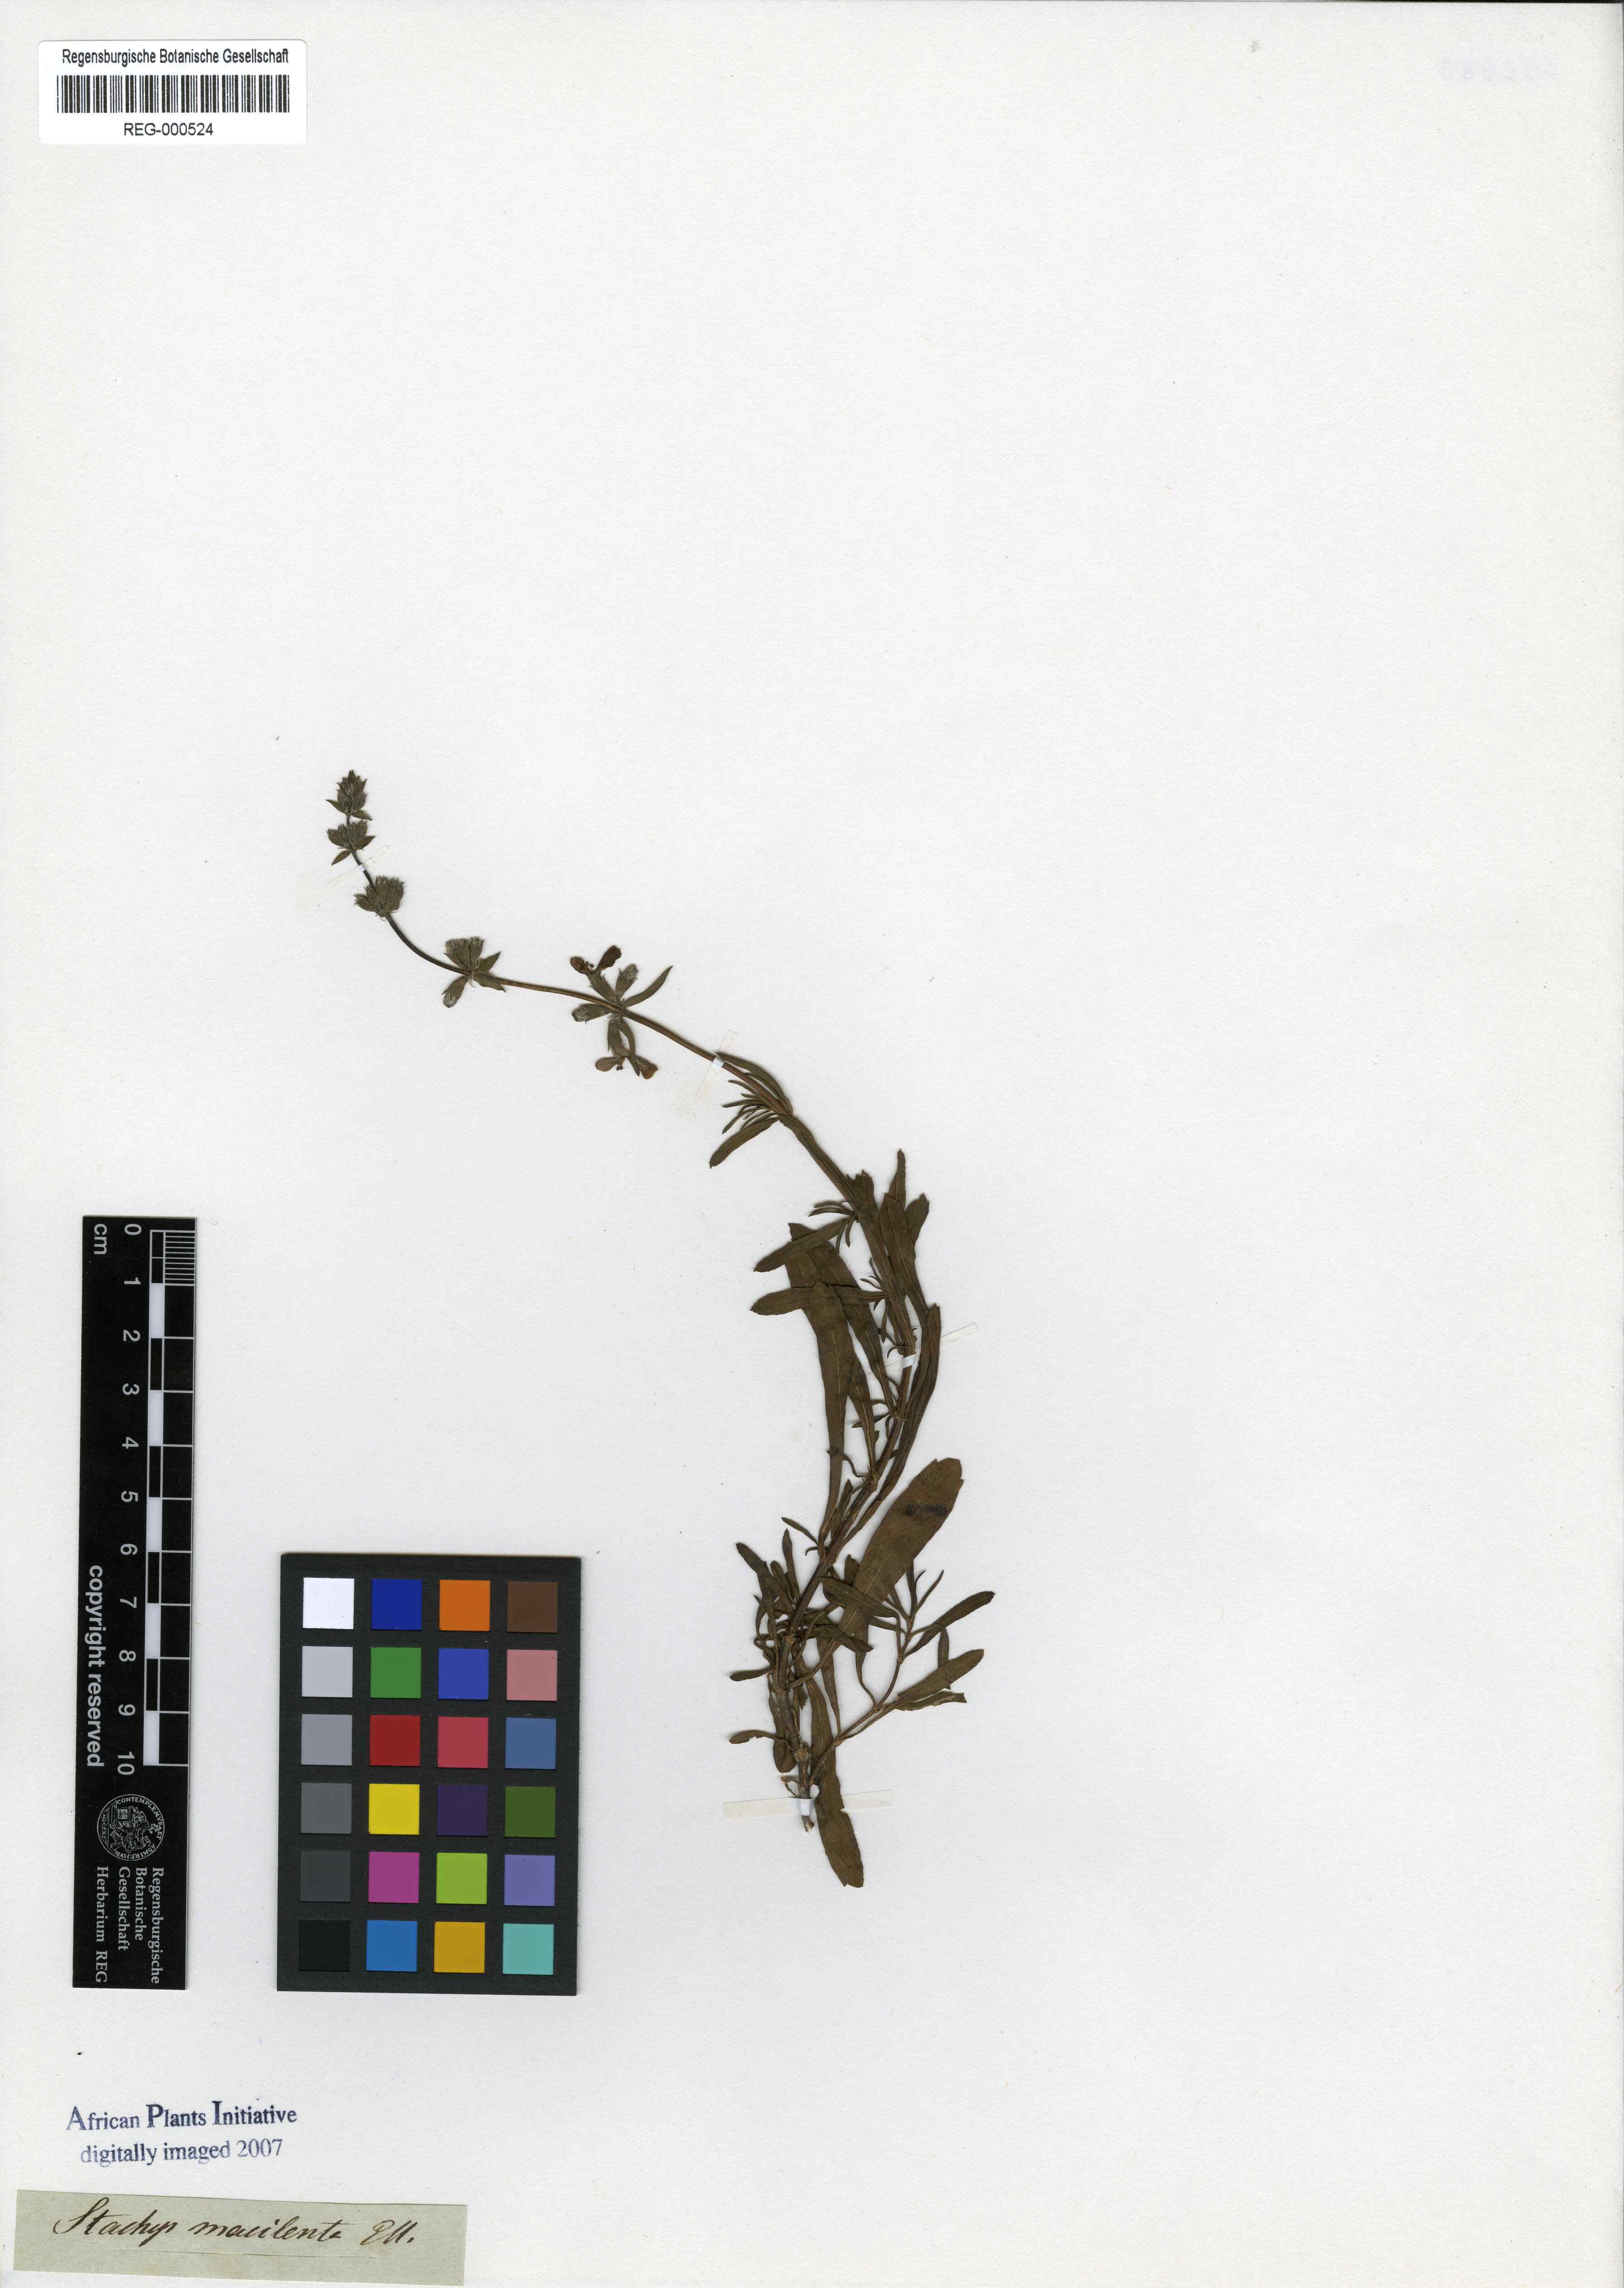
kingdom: Plantae
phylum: Tracheophyta
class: Magnoliopsida
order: Lamiales
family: Lamiaceae
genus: Stachys
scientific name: Stachys hyssopoides
